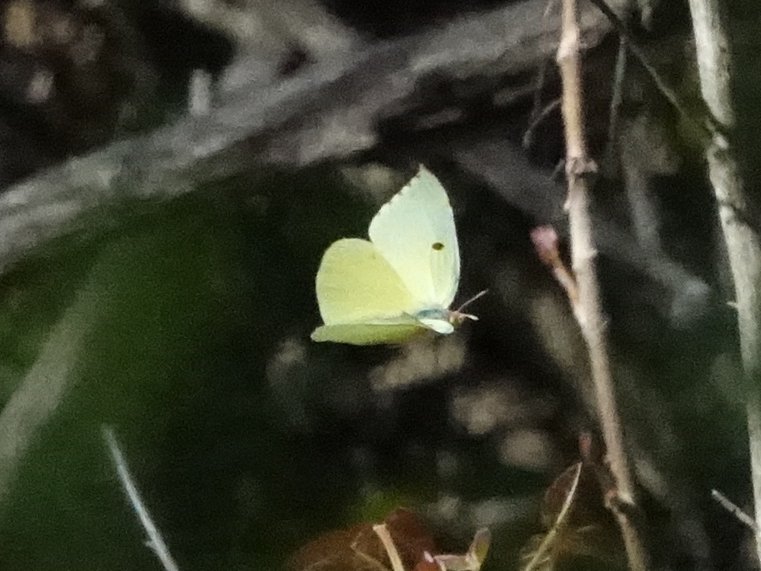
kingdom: Animalia
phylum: Arthropoda
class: Insecta
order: Lepidoptera
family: Pieridae
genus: Zerene
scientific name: Zerene eurydice
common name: California Dogface
